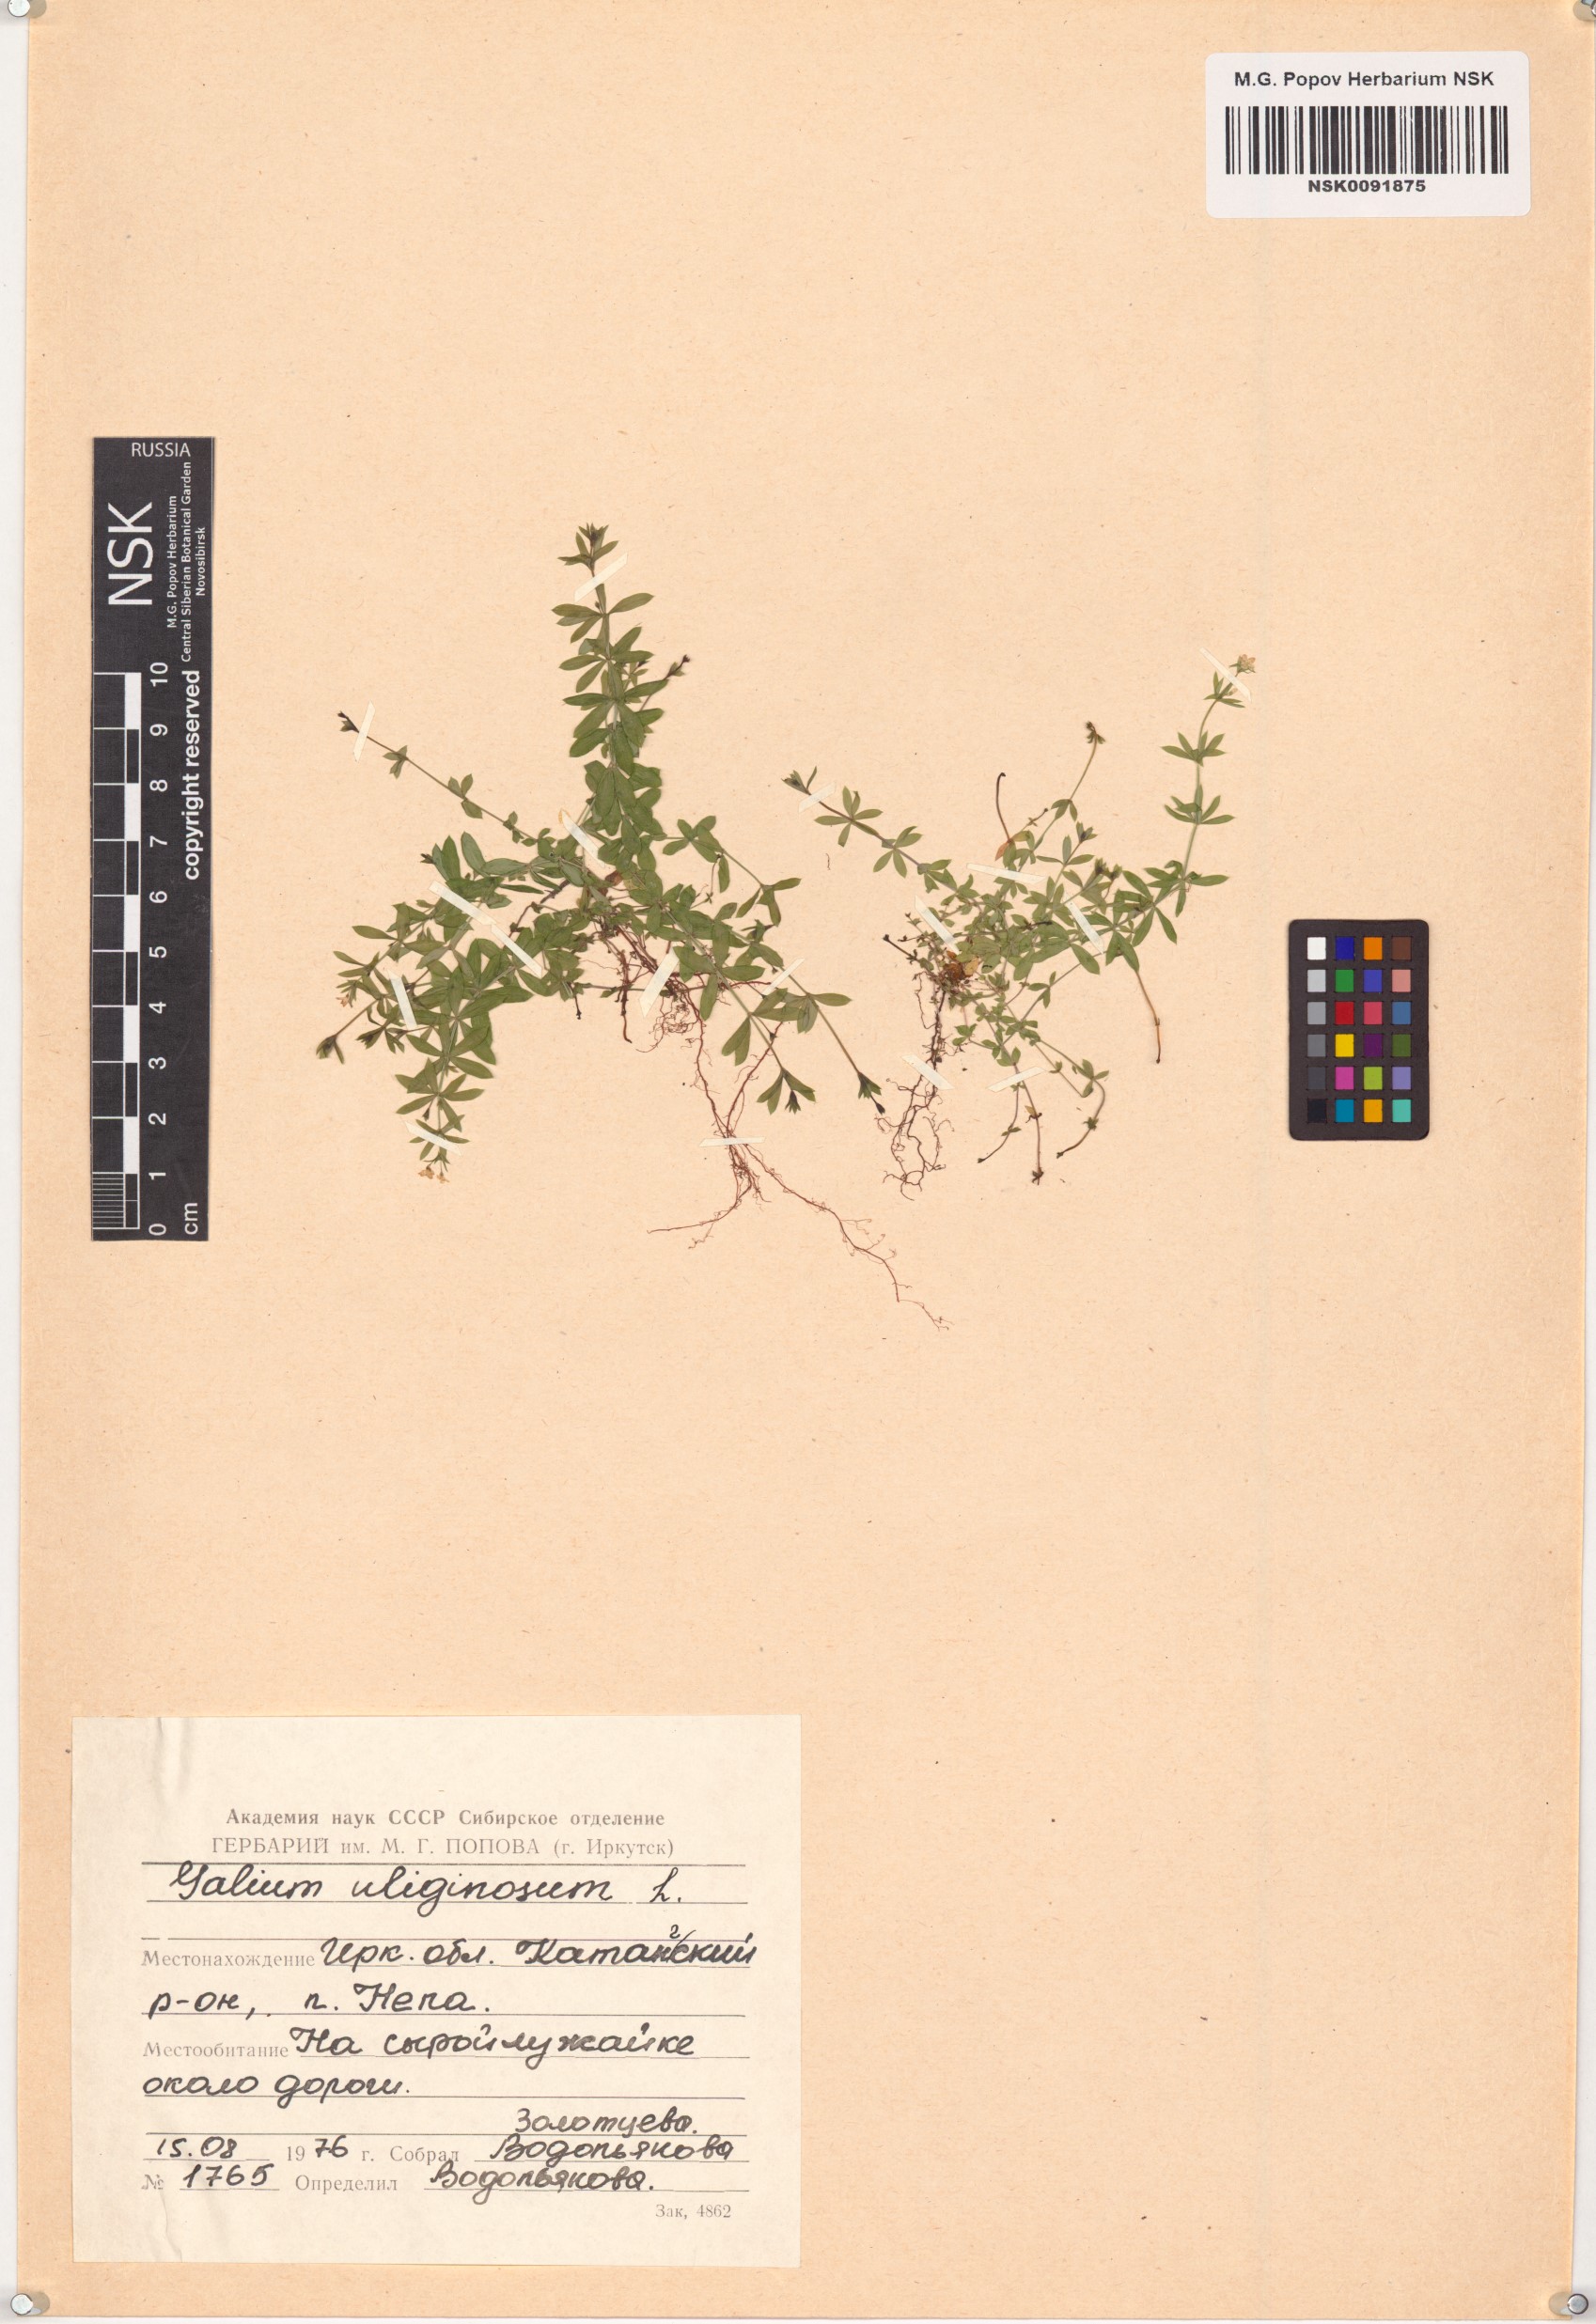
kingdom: Plantae
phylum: Tracheophyta
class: Magnoliopsida
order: Gentianales
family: Rubiaceae
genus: Galium
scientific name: Galium uliginosum
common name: Fen bedstraw
